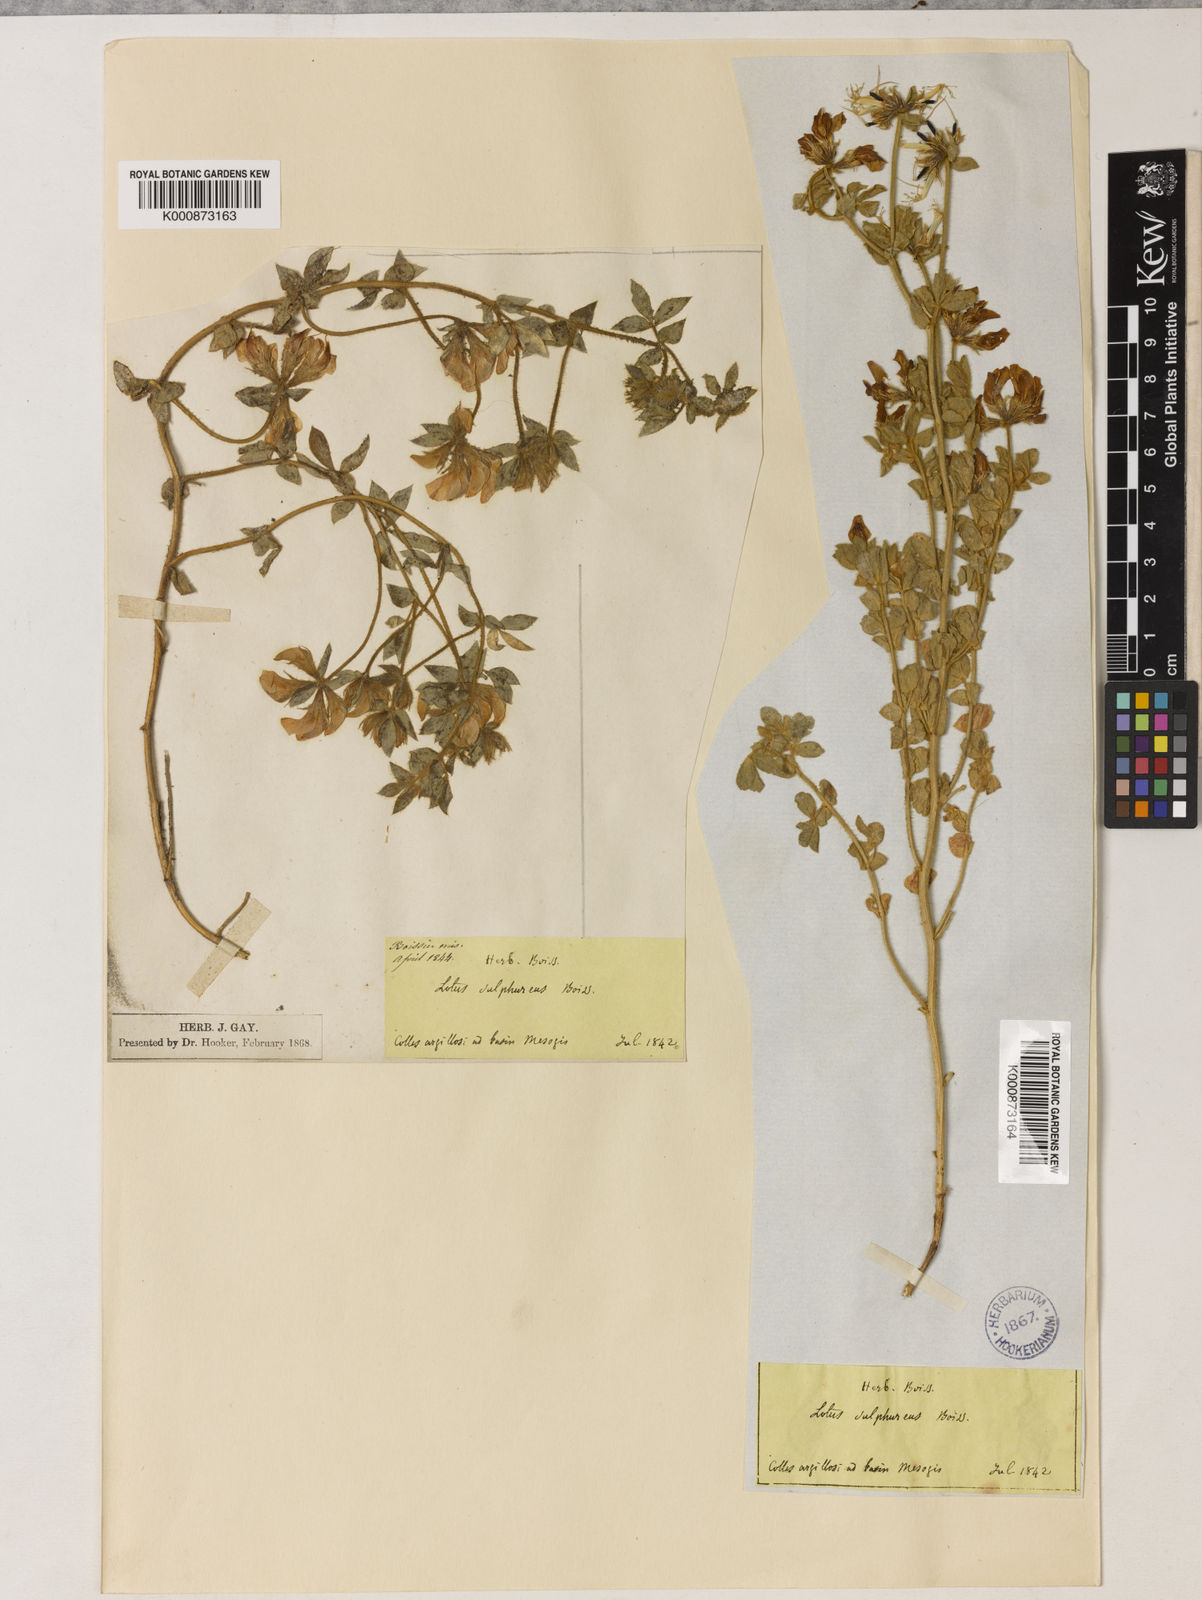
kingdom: Plantae
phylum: Tracheophyta
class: Magnoliopsida
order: Fabales
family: Fabaceae
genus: Lotus
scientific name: Lotus
